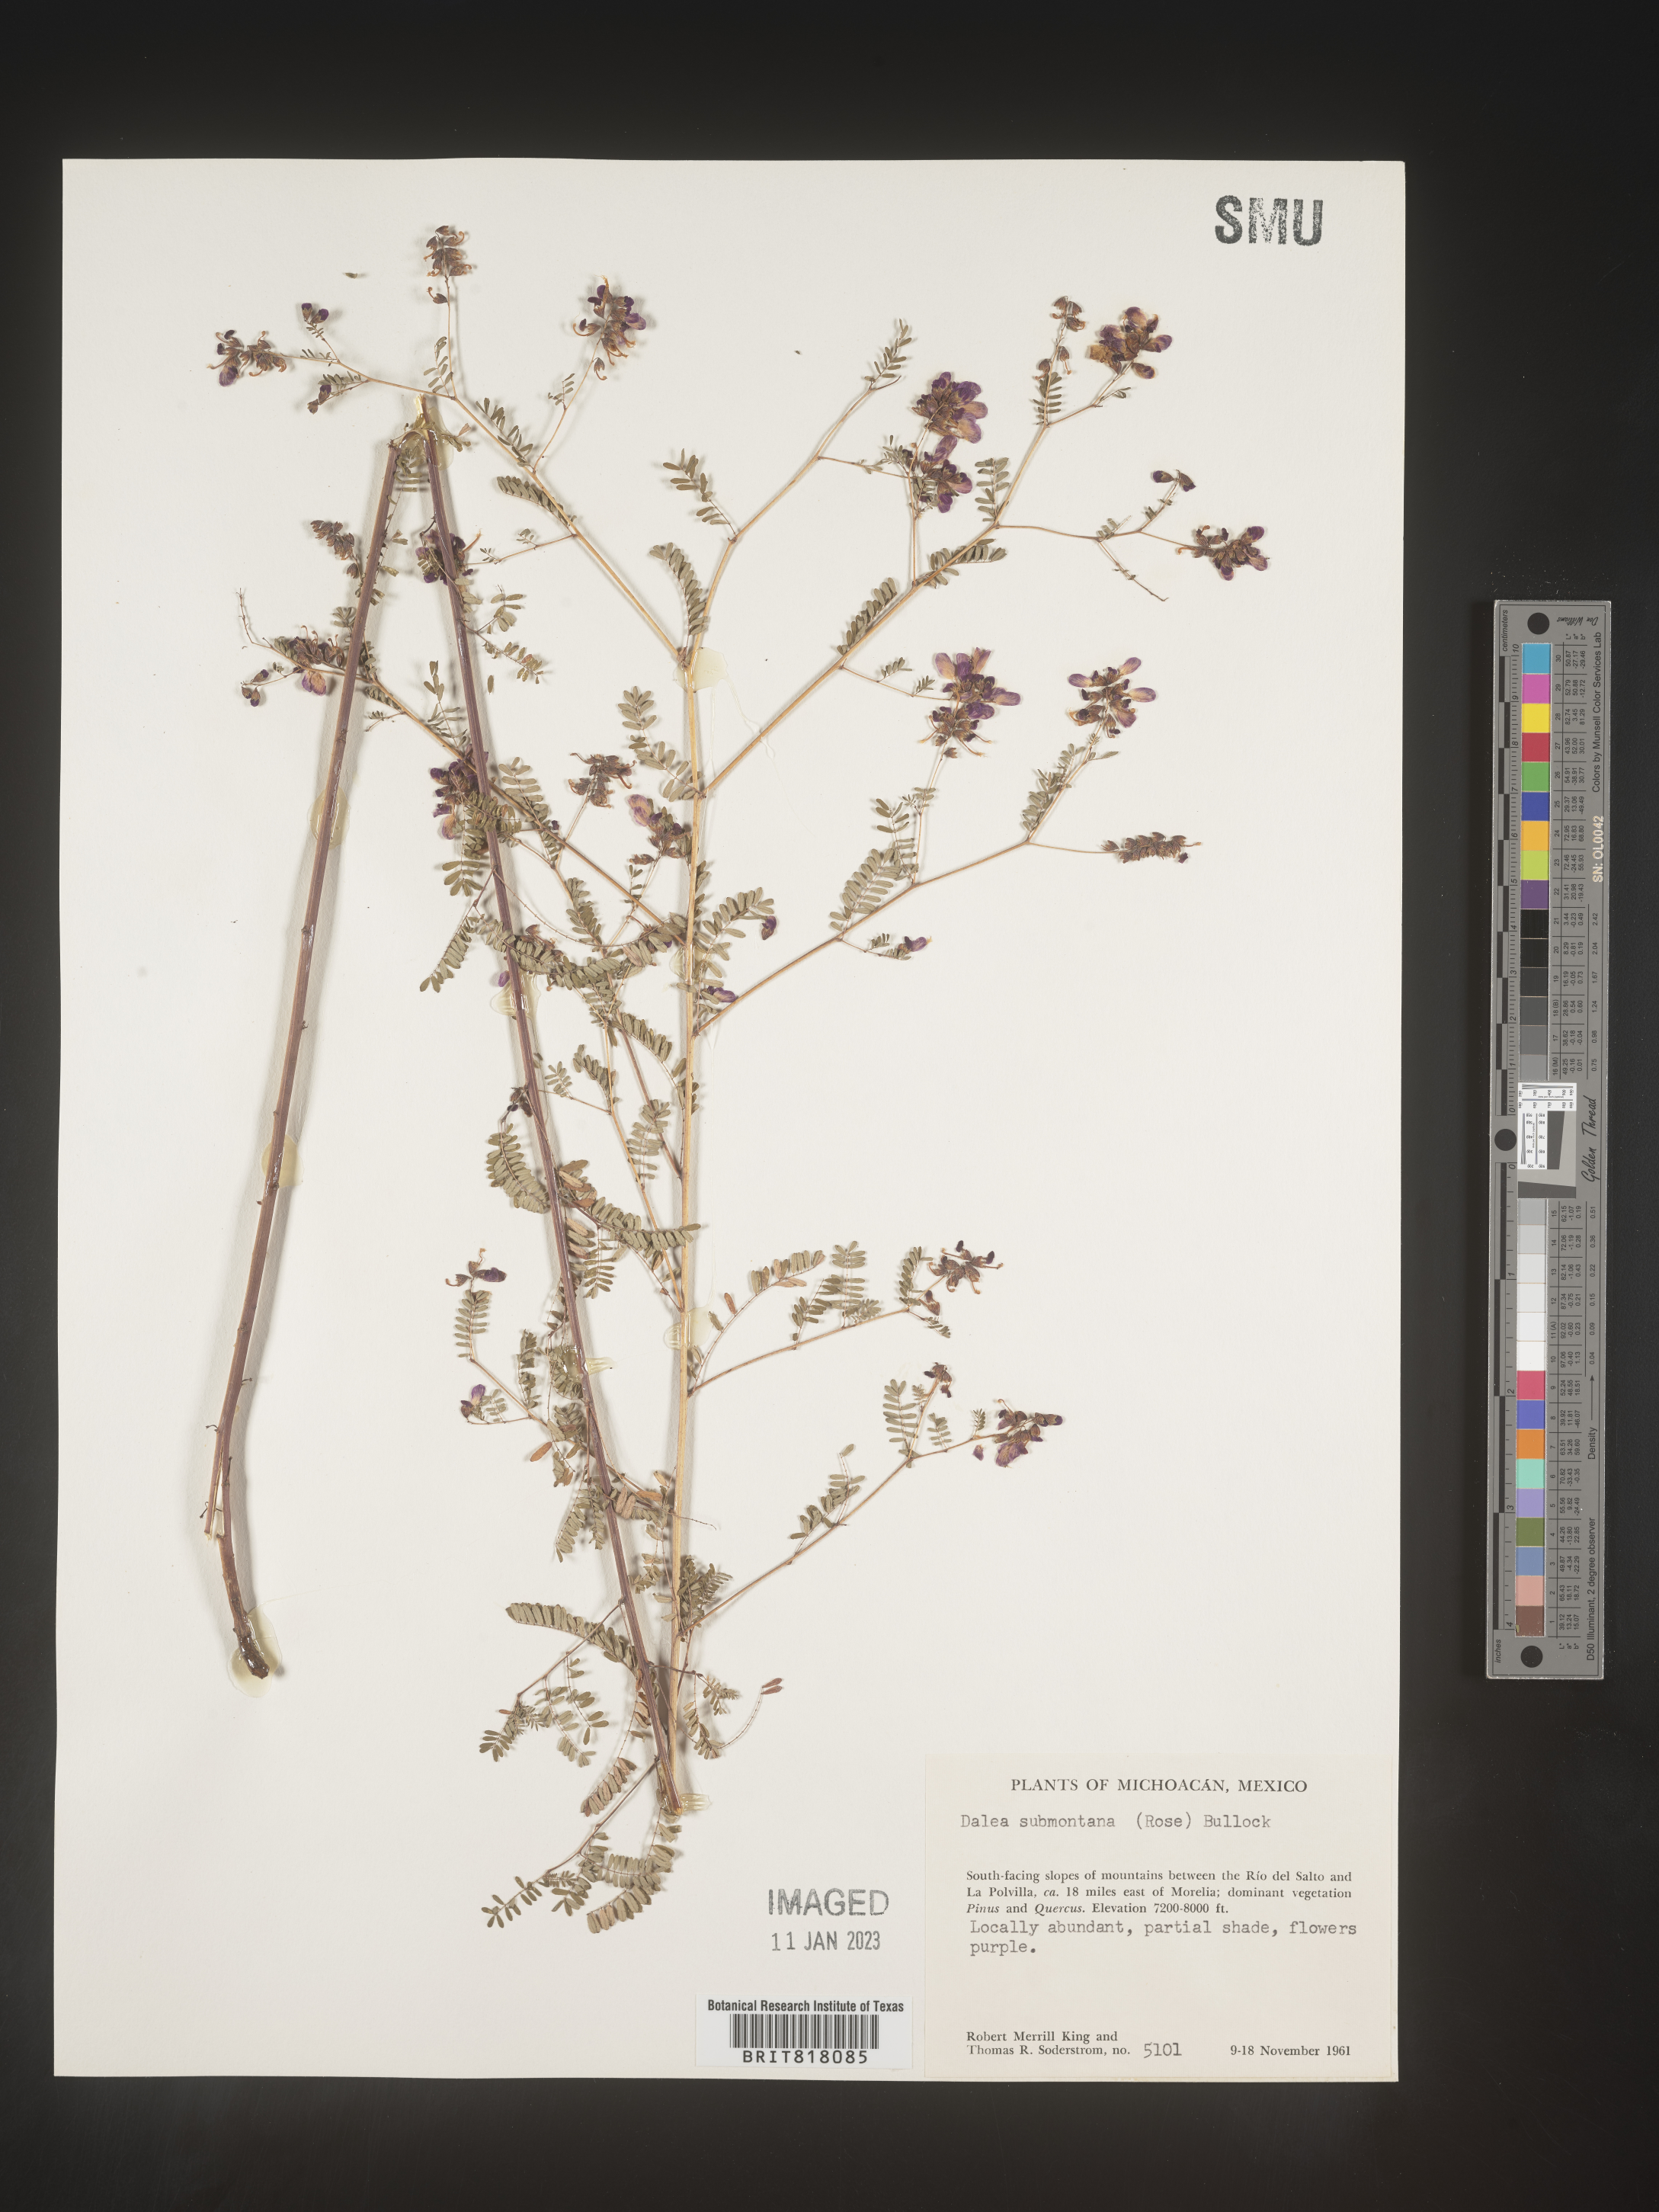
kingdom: Plantae
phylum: Tracheophyta
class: Magnoliopsida
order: Fabales
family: Fabaceae
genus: Dalea
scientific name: Dalea
